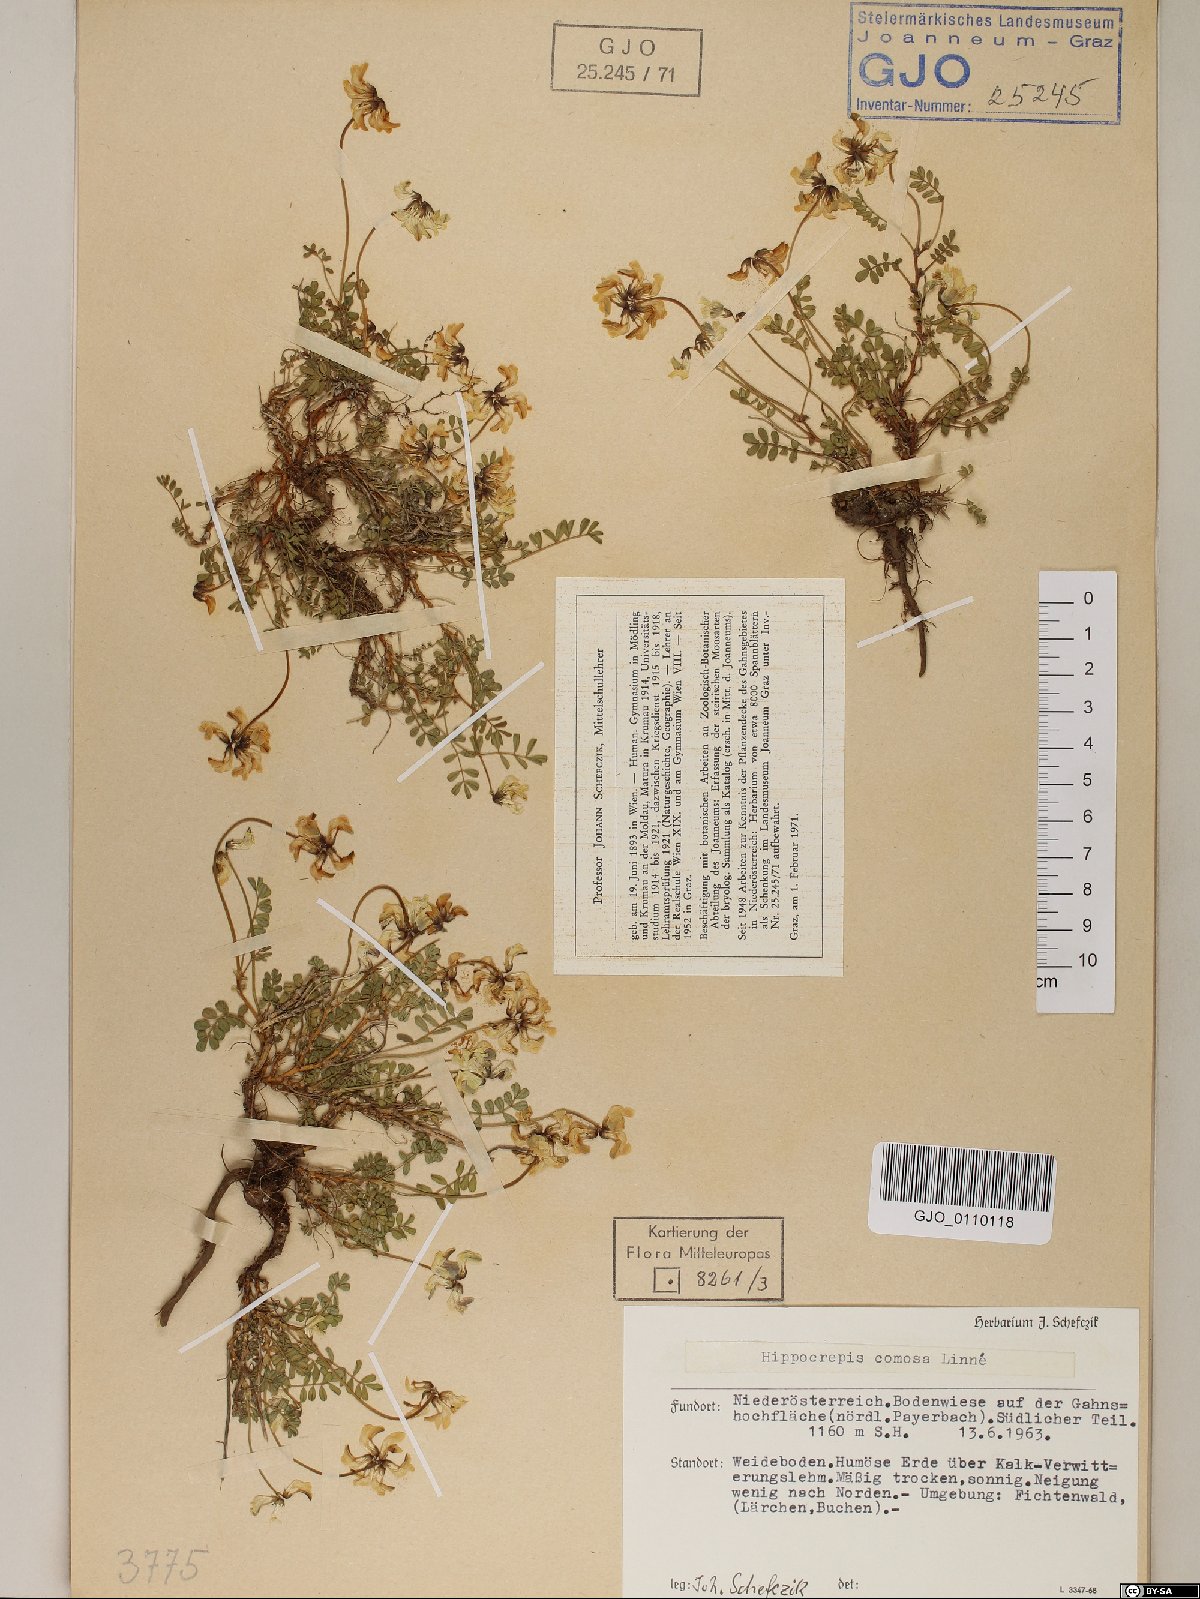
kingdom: Plantae
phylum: Tracheophyta
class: Magnoliopsida
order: Fabales
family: Fabaceae
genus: Hippocrepis
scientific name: Hippocrepis comosa
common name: Horseshoe vetch
